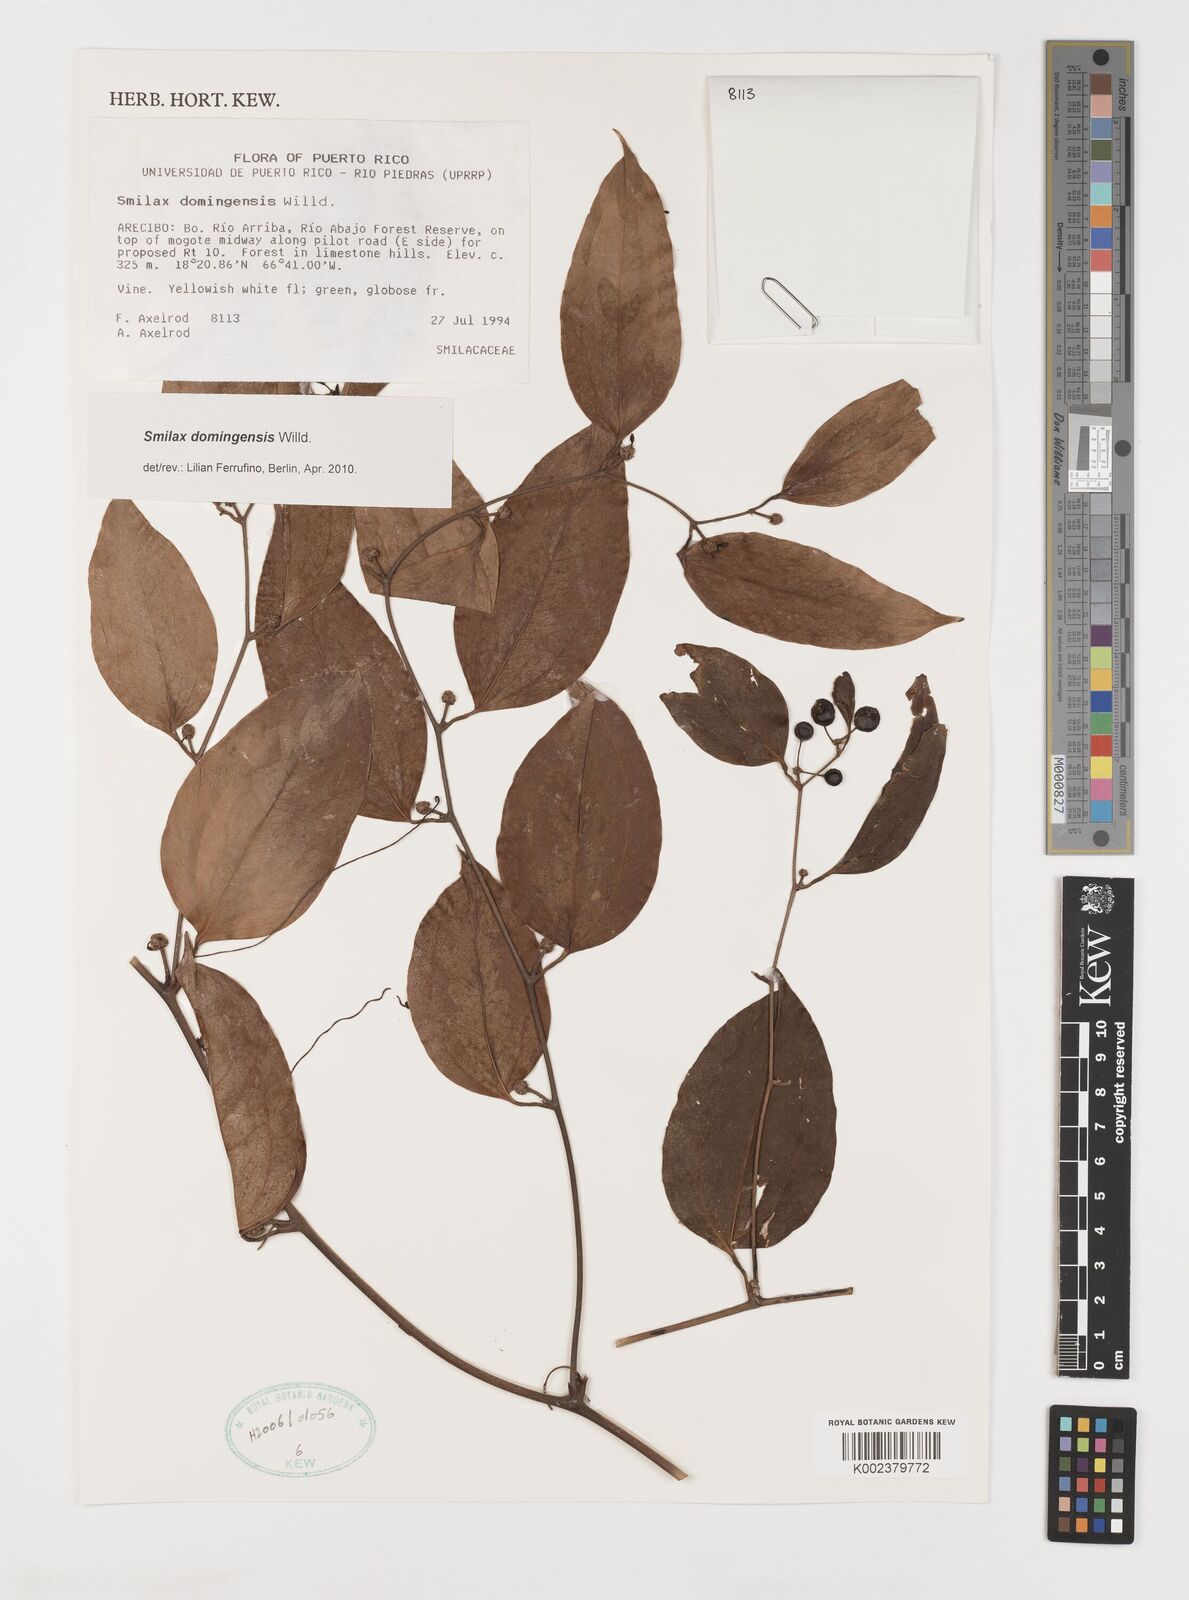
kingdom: Plantae
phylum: Tracheophyta
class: Liliopsida
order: Liliales
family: Smilacaceae
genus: Smilax
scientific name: Smilax domingensis
